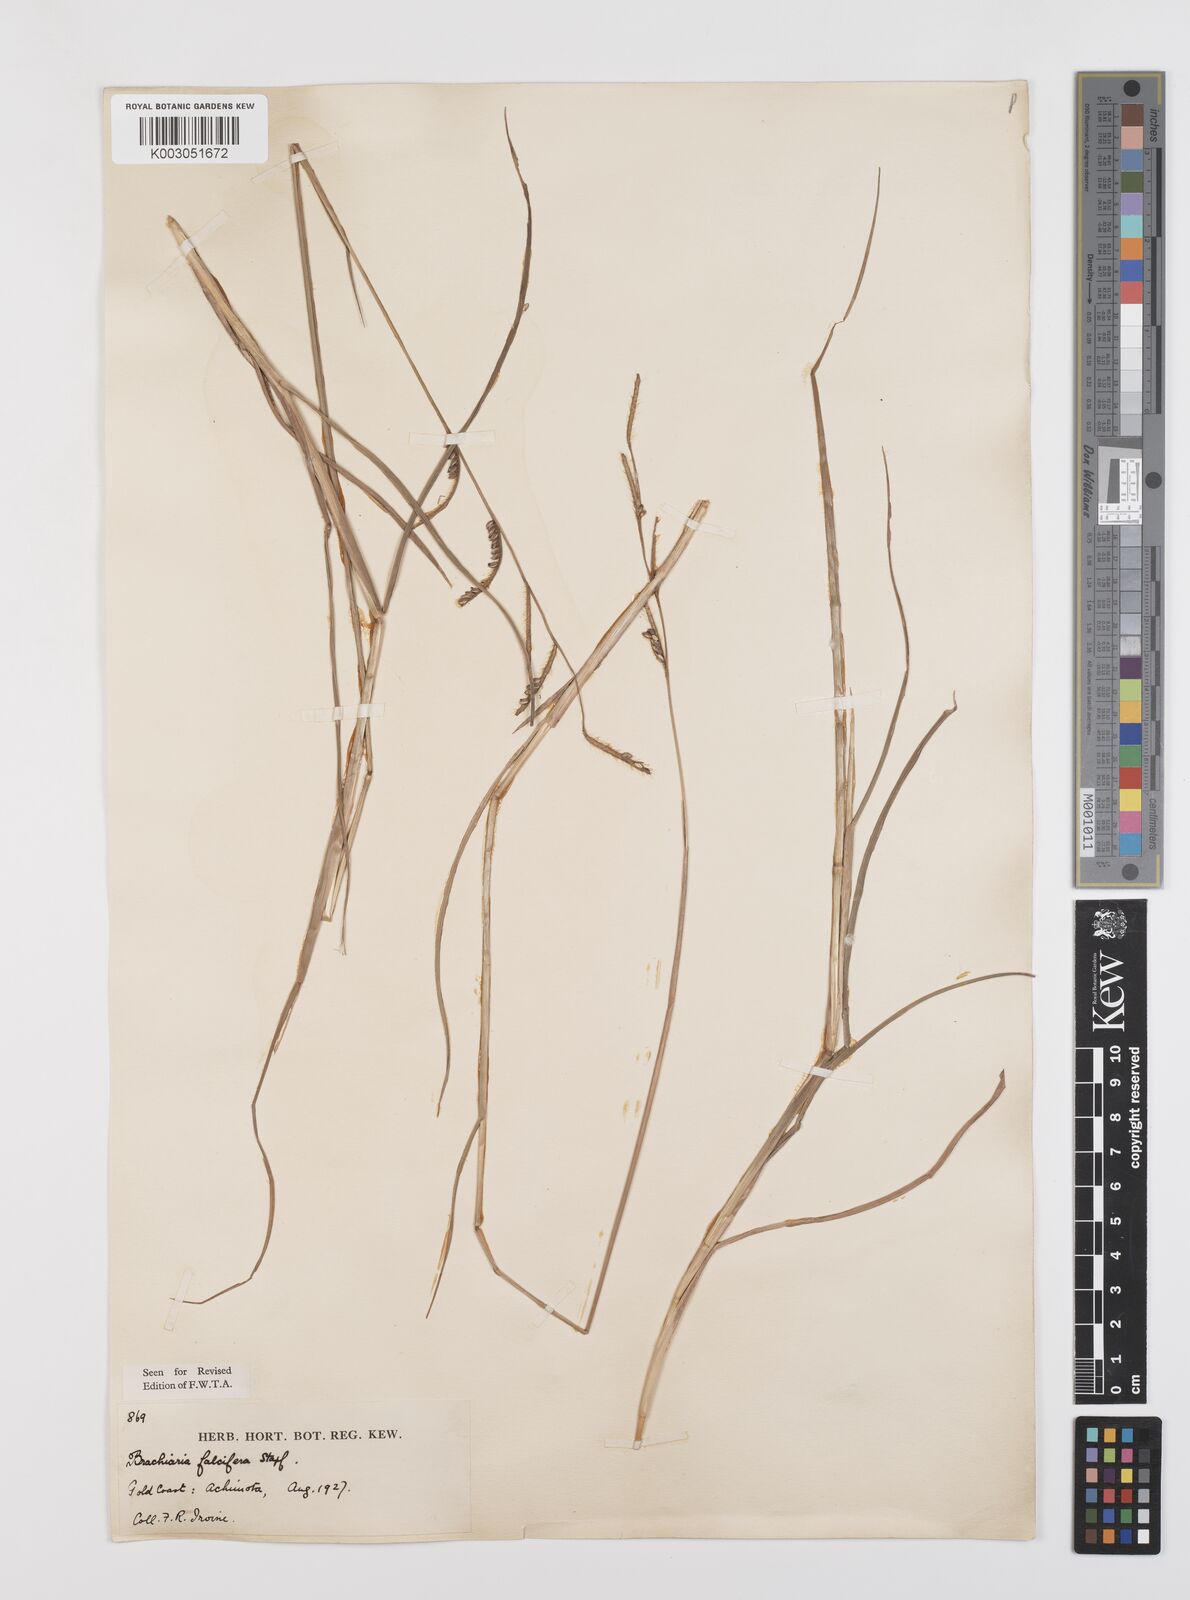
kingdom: Plantae
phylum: Tracheophyta
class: Liliopsida
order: Poales
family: Poaceae
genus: Urochloa
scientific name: Urochloa falcifera
